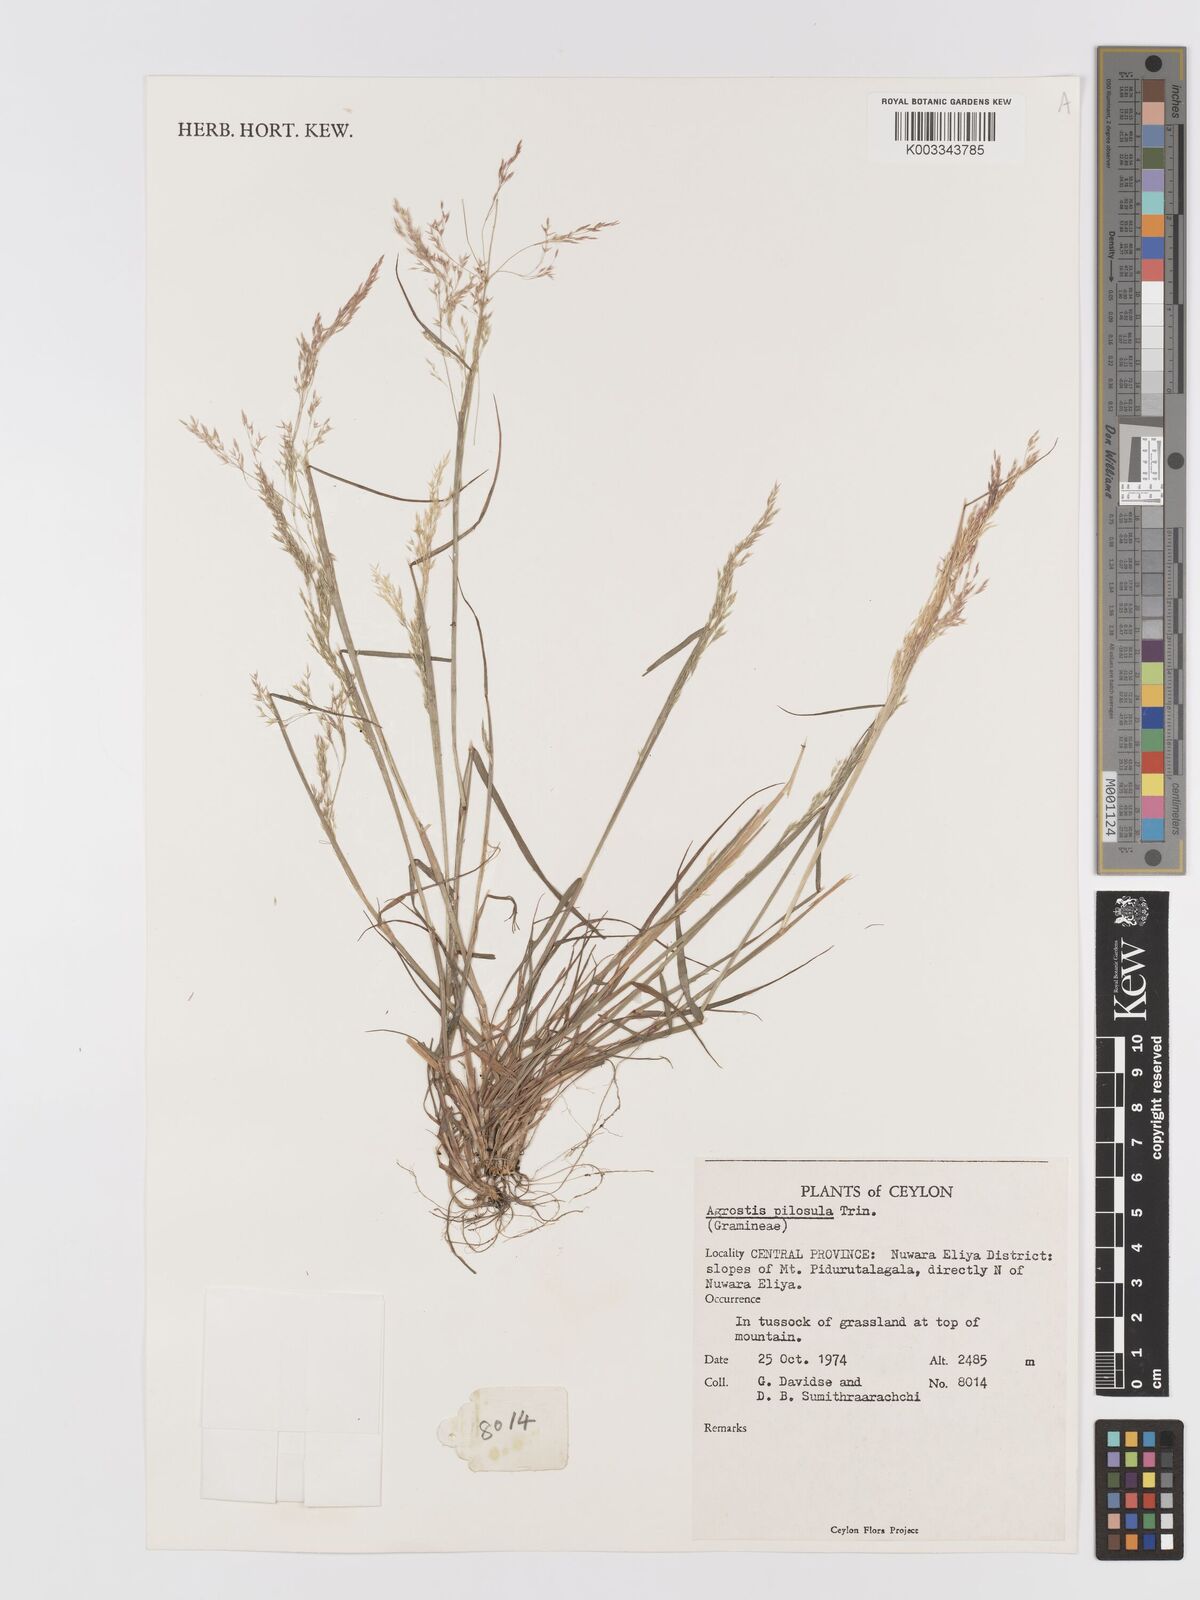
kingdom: Plantae
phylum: Tracheophyta
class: Liliopsida
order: Poales
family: Poaceae
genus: Agrostis
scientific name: Agrostis pilosula
